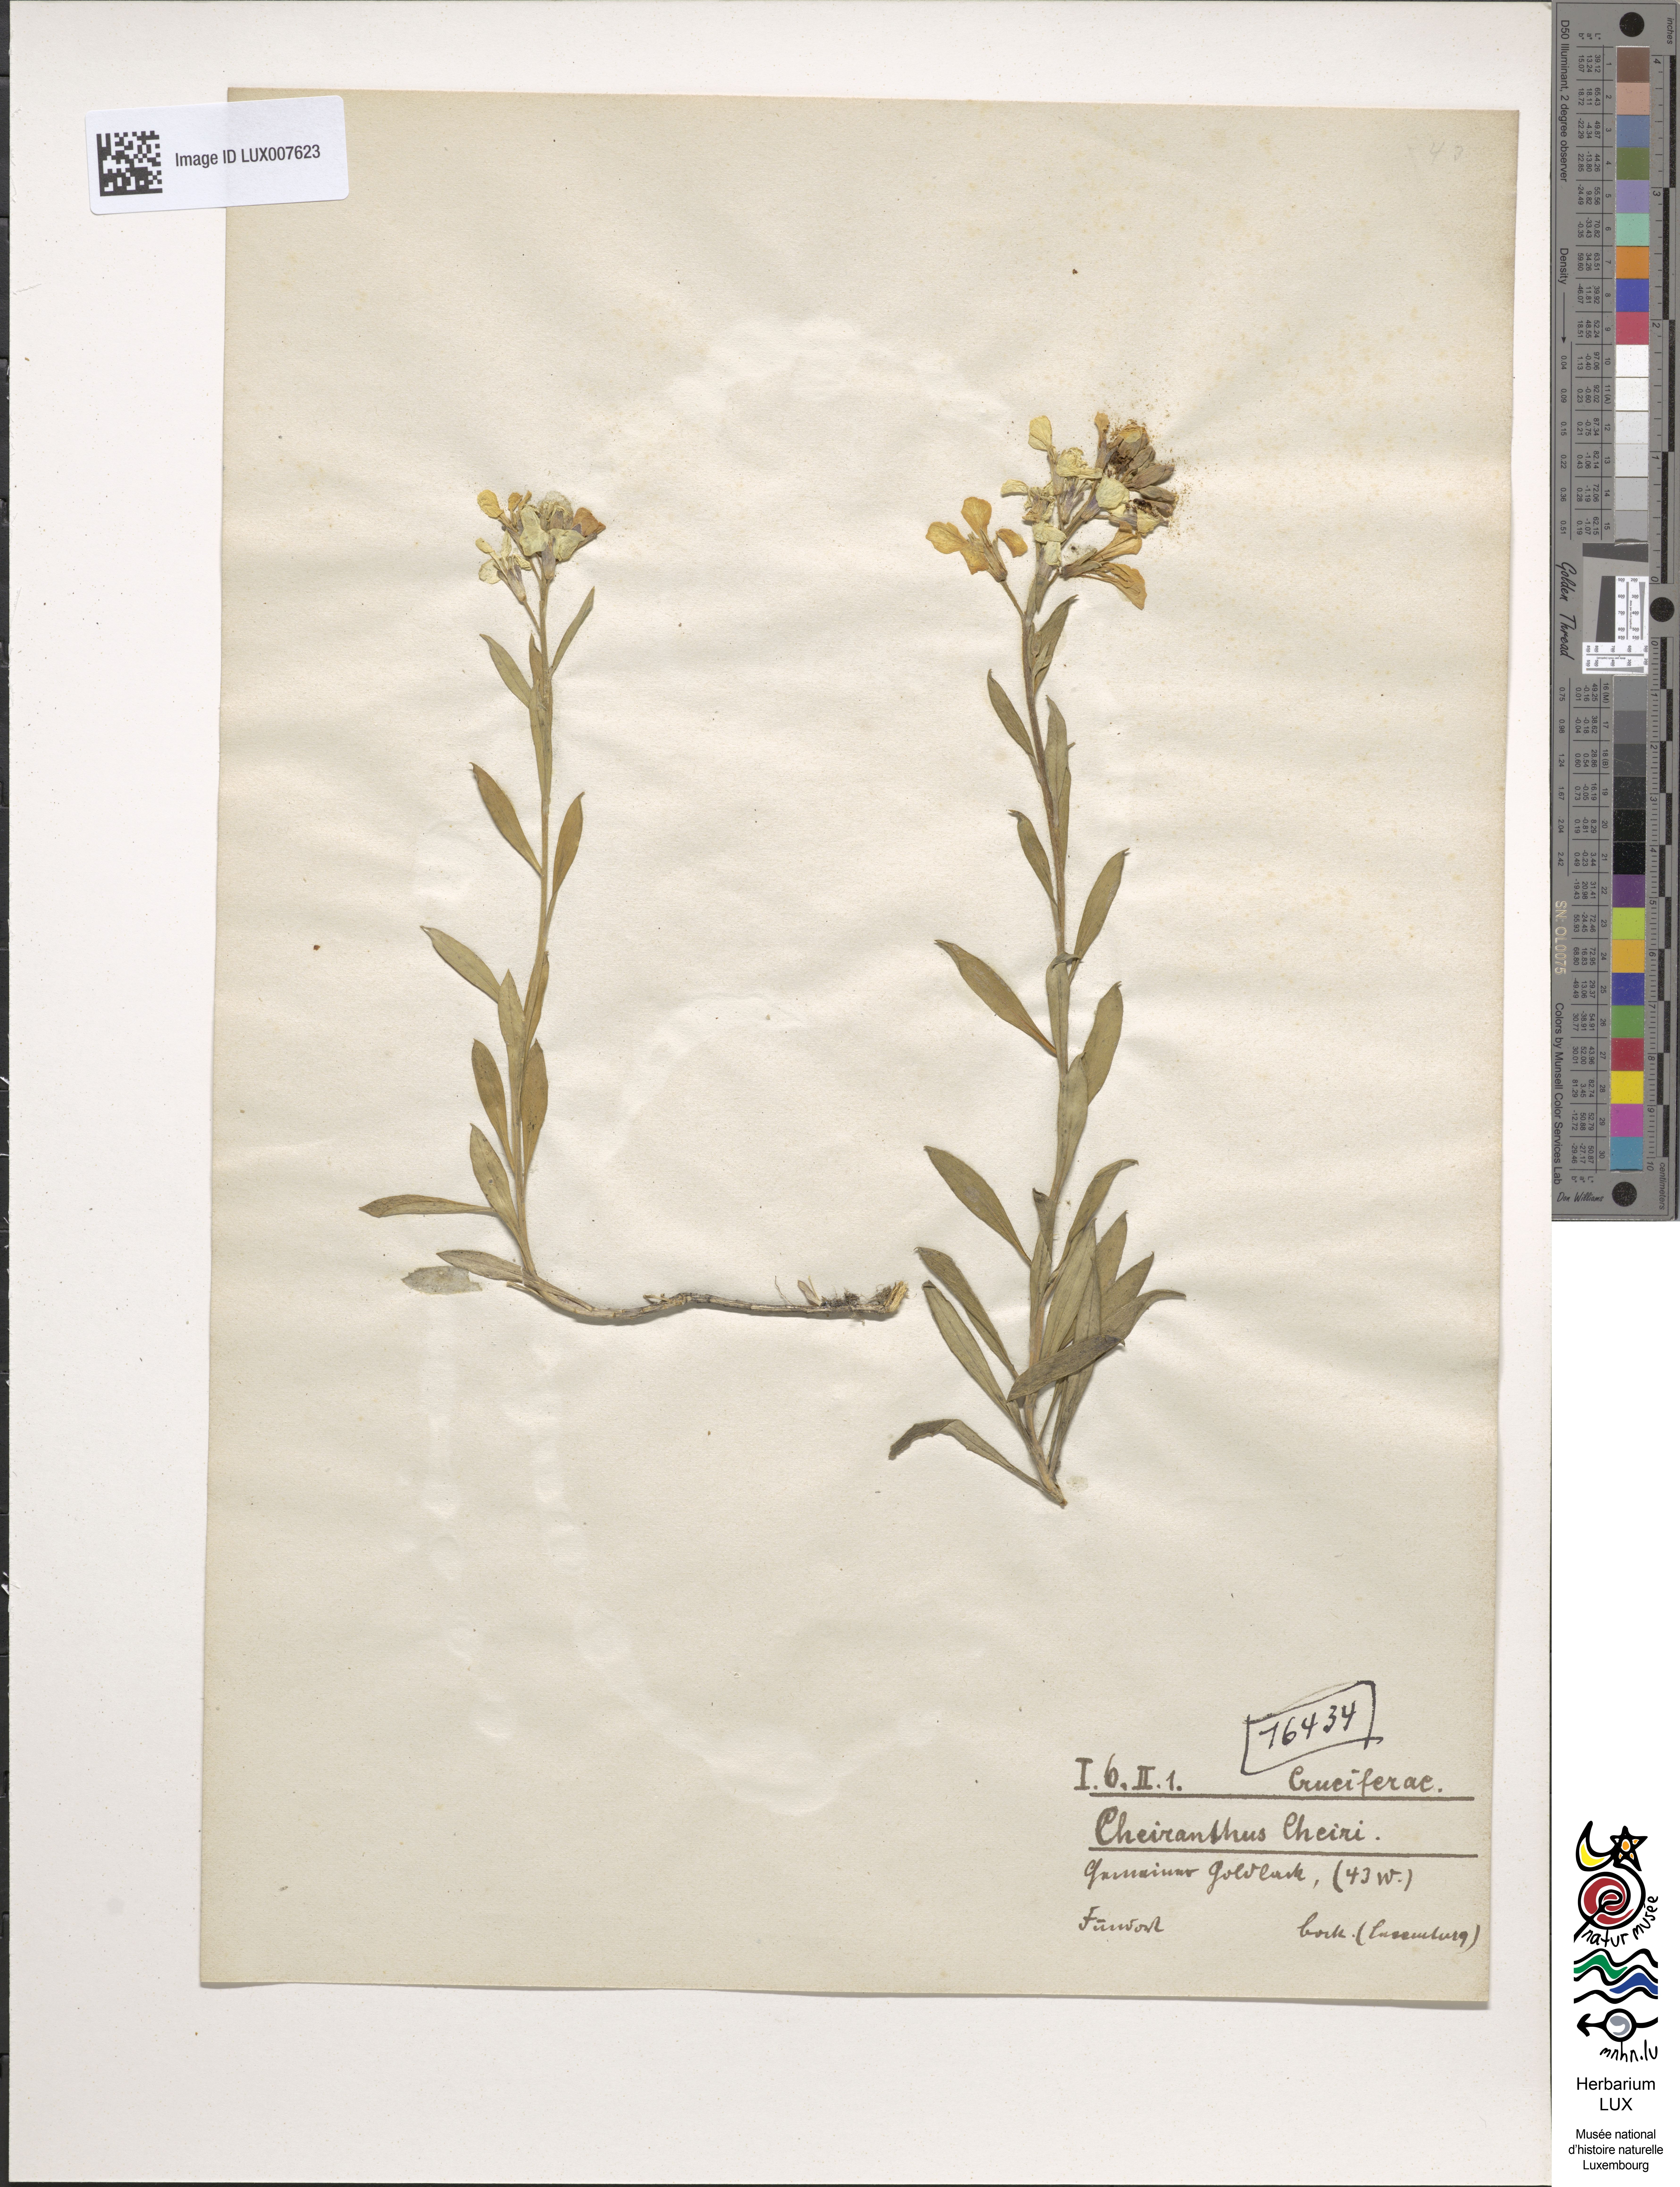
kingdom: Plantae
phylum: Tracheophyta
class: Magnoliopsida
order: Brassicales
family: Brassicaceae
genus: Erysimum
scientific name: Erysimum cheiri
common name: Wallflower
